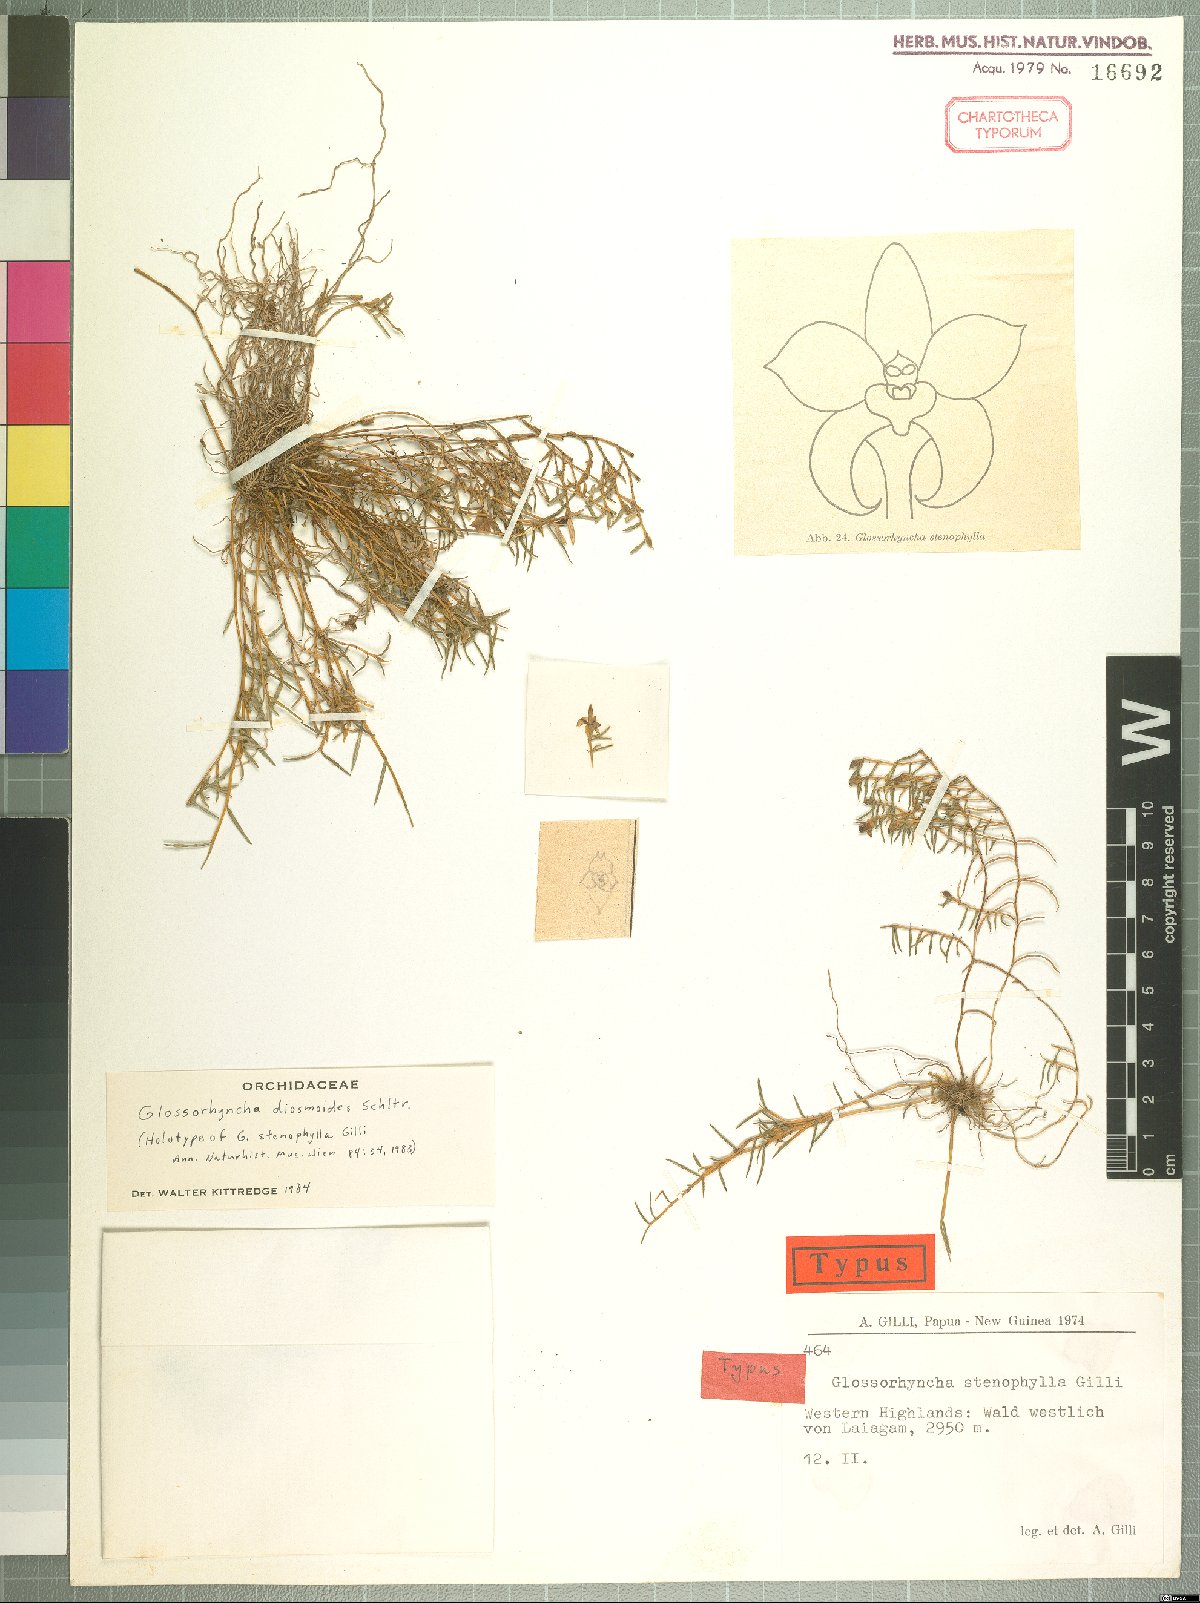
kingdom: Plantae
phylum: Tracheophyta
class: Liliopsida
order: Asparagales
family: Orchidaceae
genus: Glomera
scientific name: Glomera diosmoides
